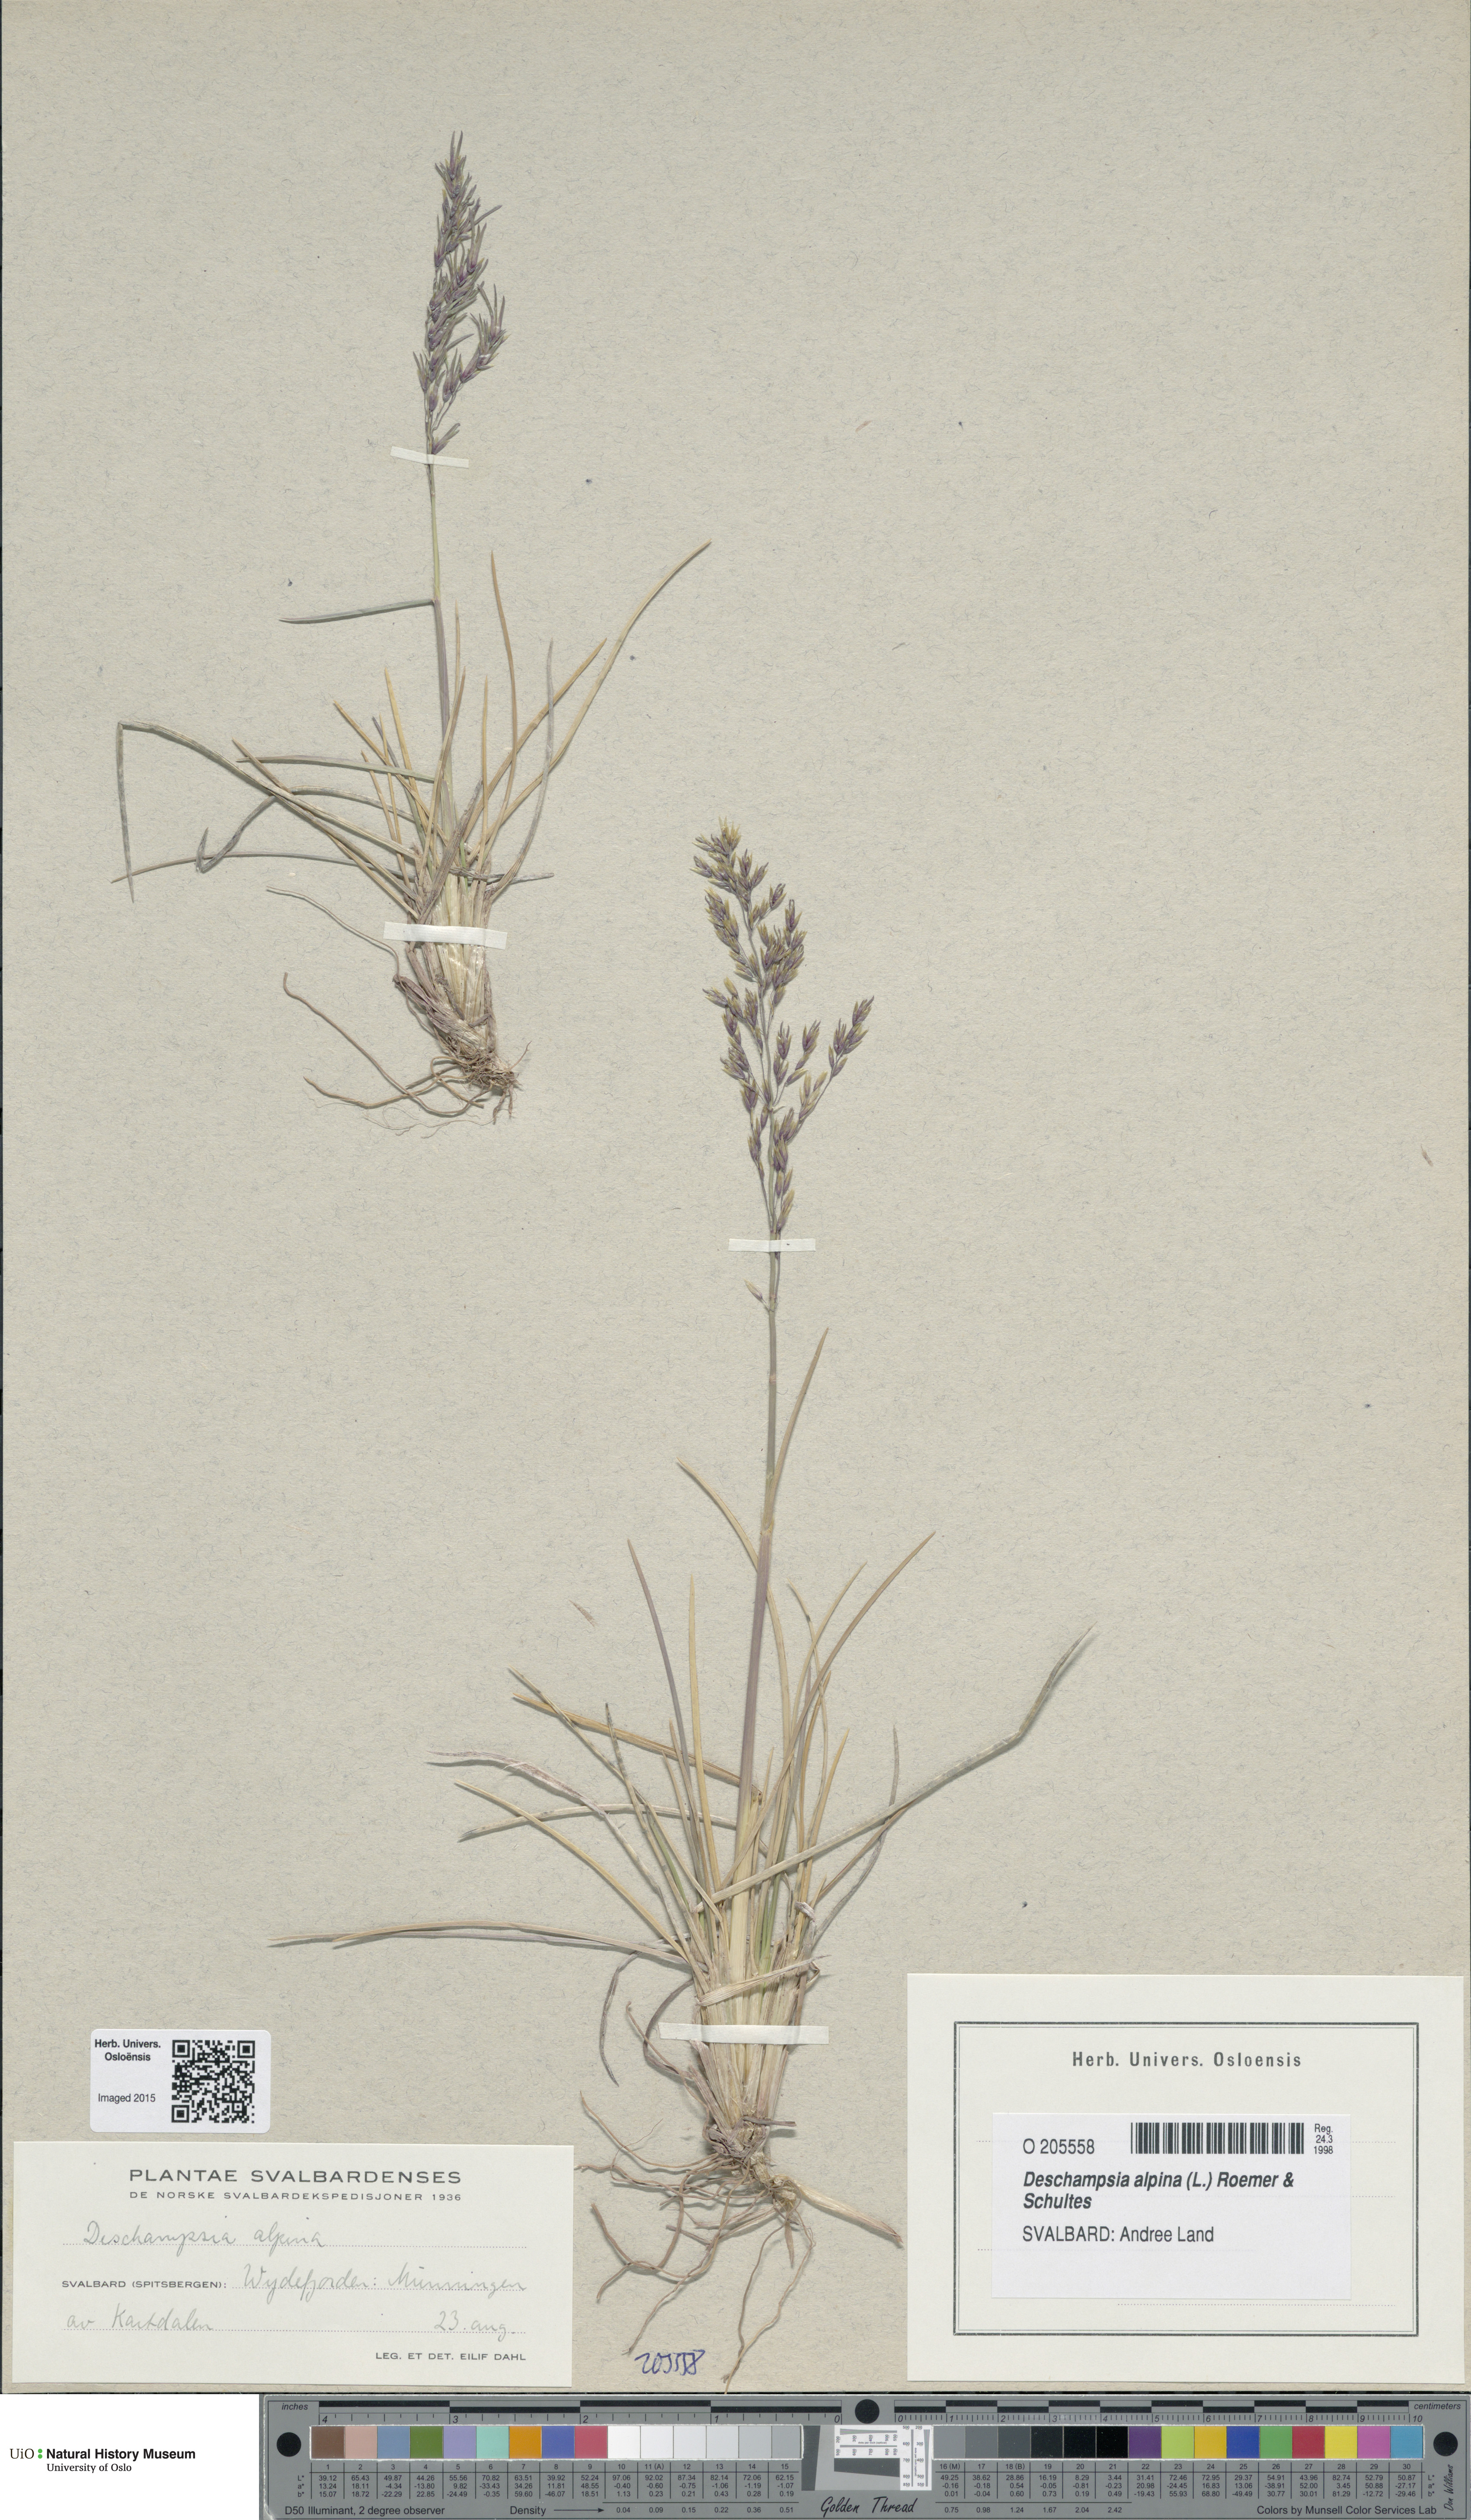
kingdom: Plantae
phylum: Tracheophyta
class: Liliopsida
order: Poales
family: Poaceae
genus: Deschampsia
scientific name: Deschampsia cespitosa
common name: Tufted hair-grass
